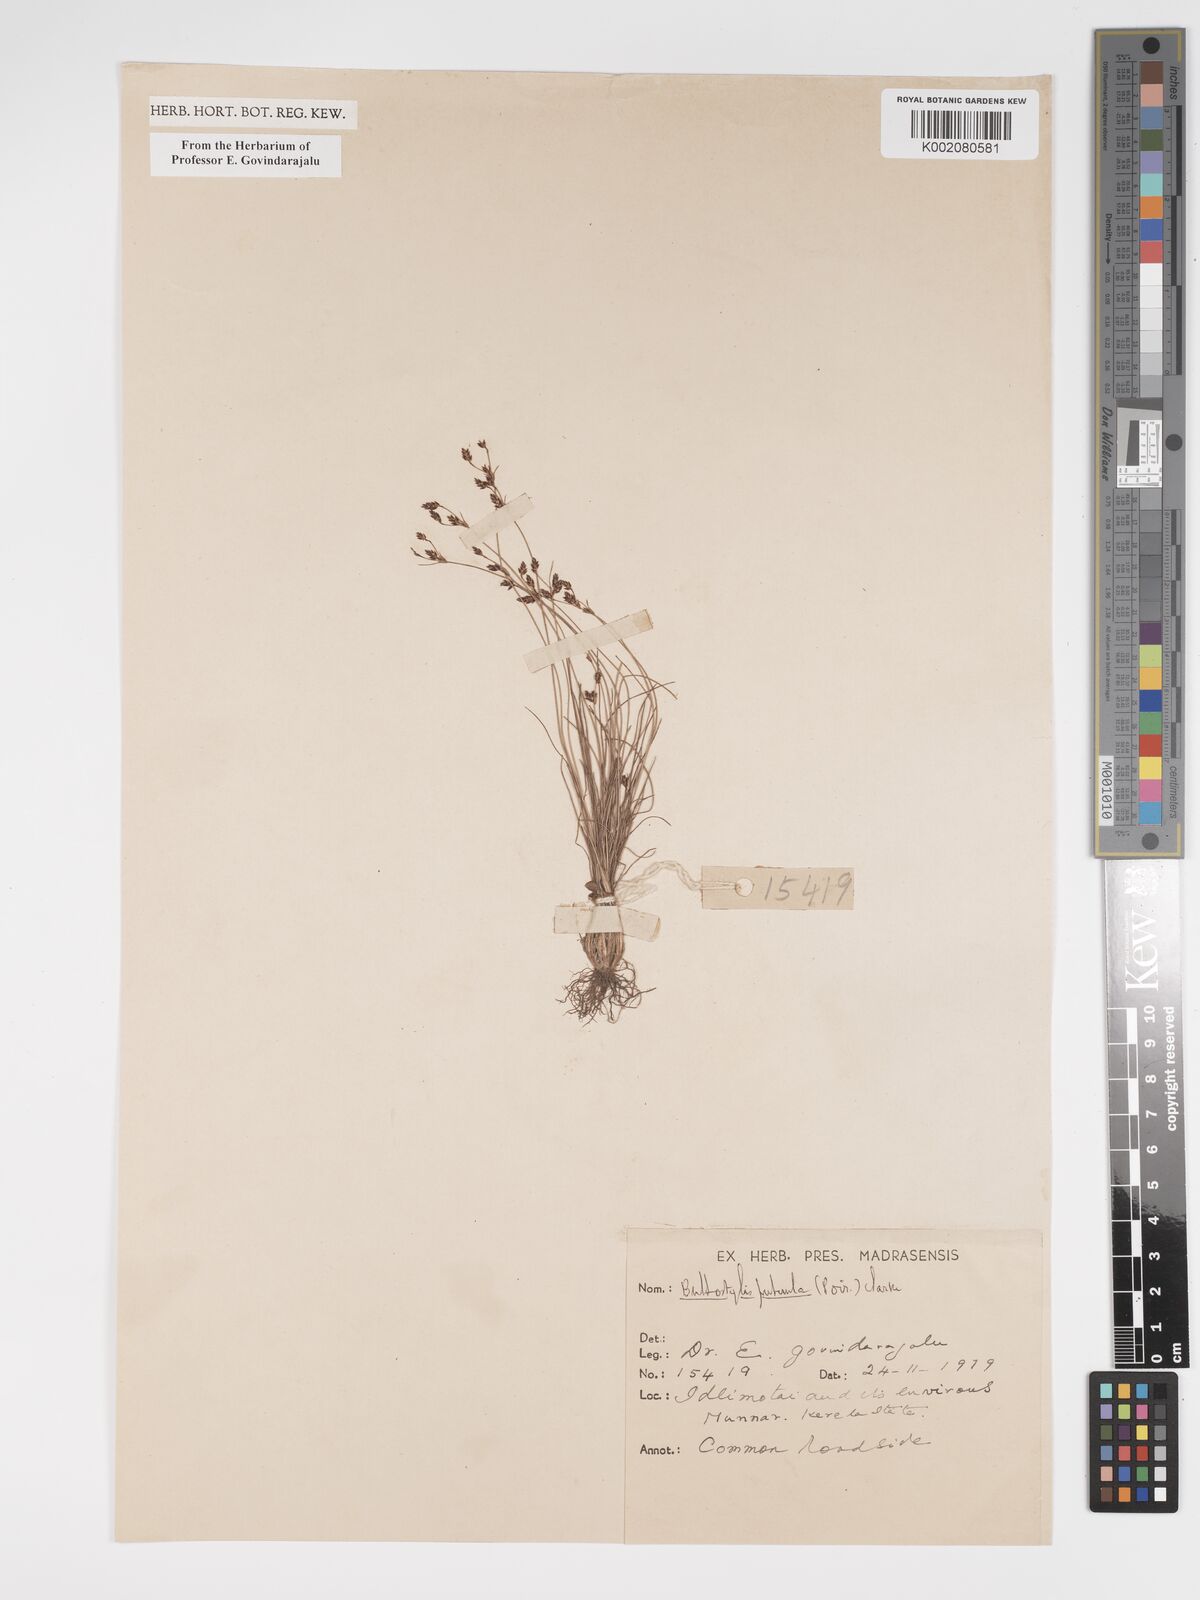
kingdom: Plantae
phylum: Tracheophyta
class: Liliopsida
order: Poales
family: Cyperaceae
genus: Bulbostylis
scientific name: Bulbostylis thouarsii
